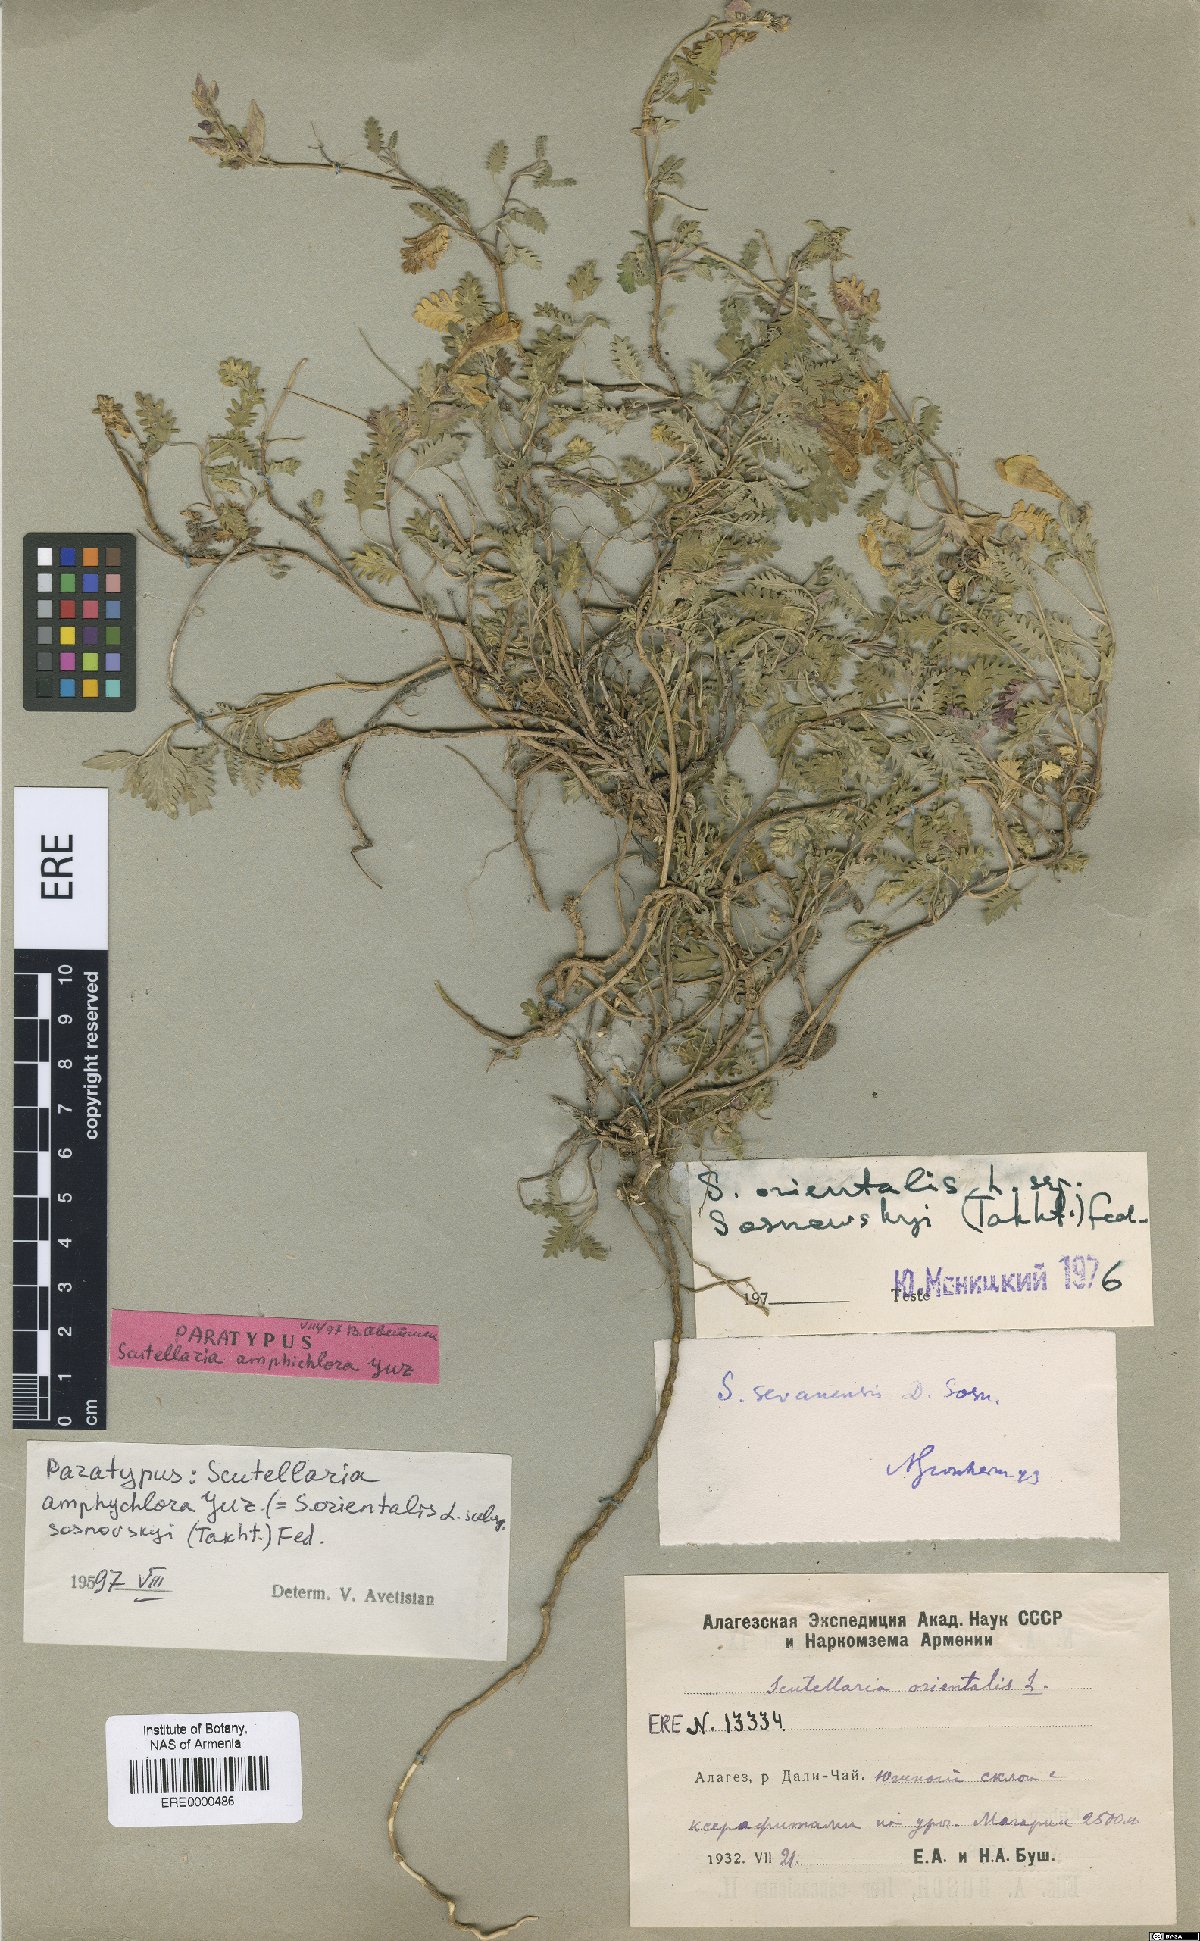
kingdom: Plantae
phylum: Tracheophyta
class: Magnoliopsida
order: Lamiales
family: Lamiaceae
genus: Scutellaria
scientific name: Scutellaria amphichlora
